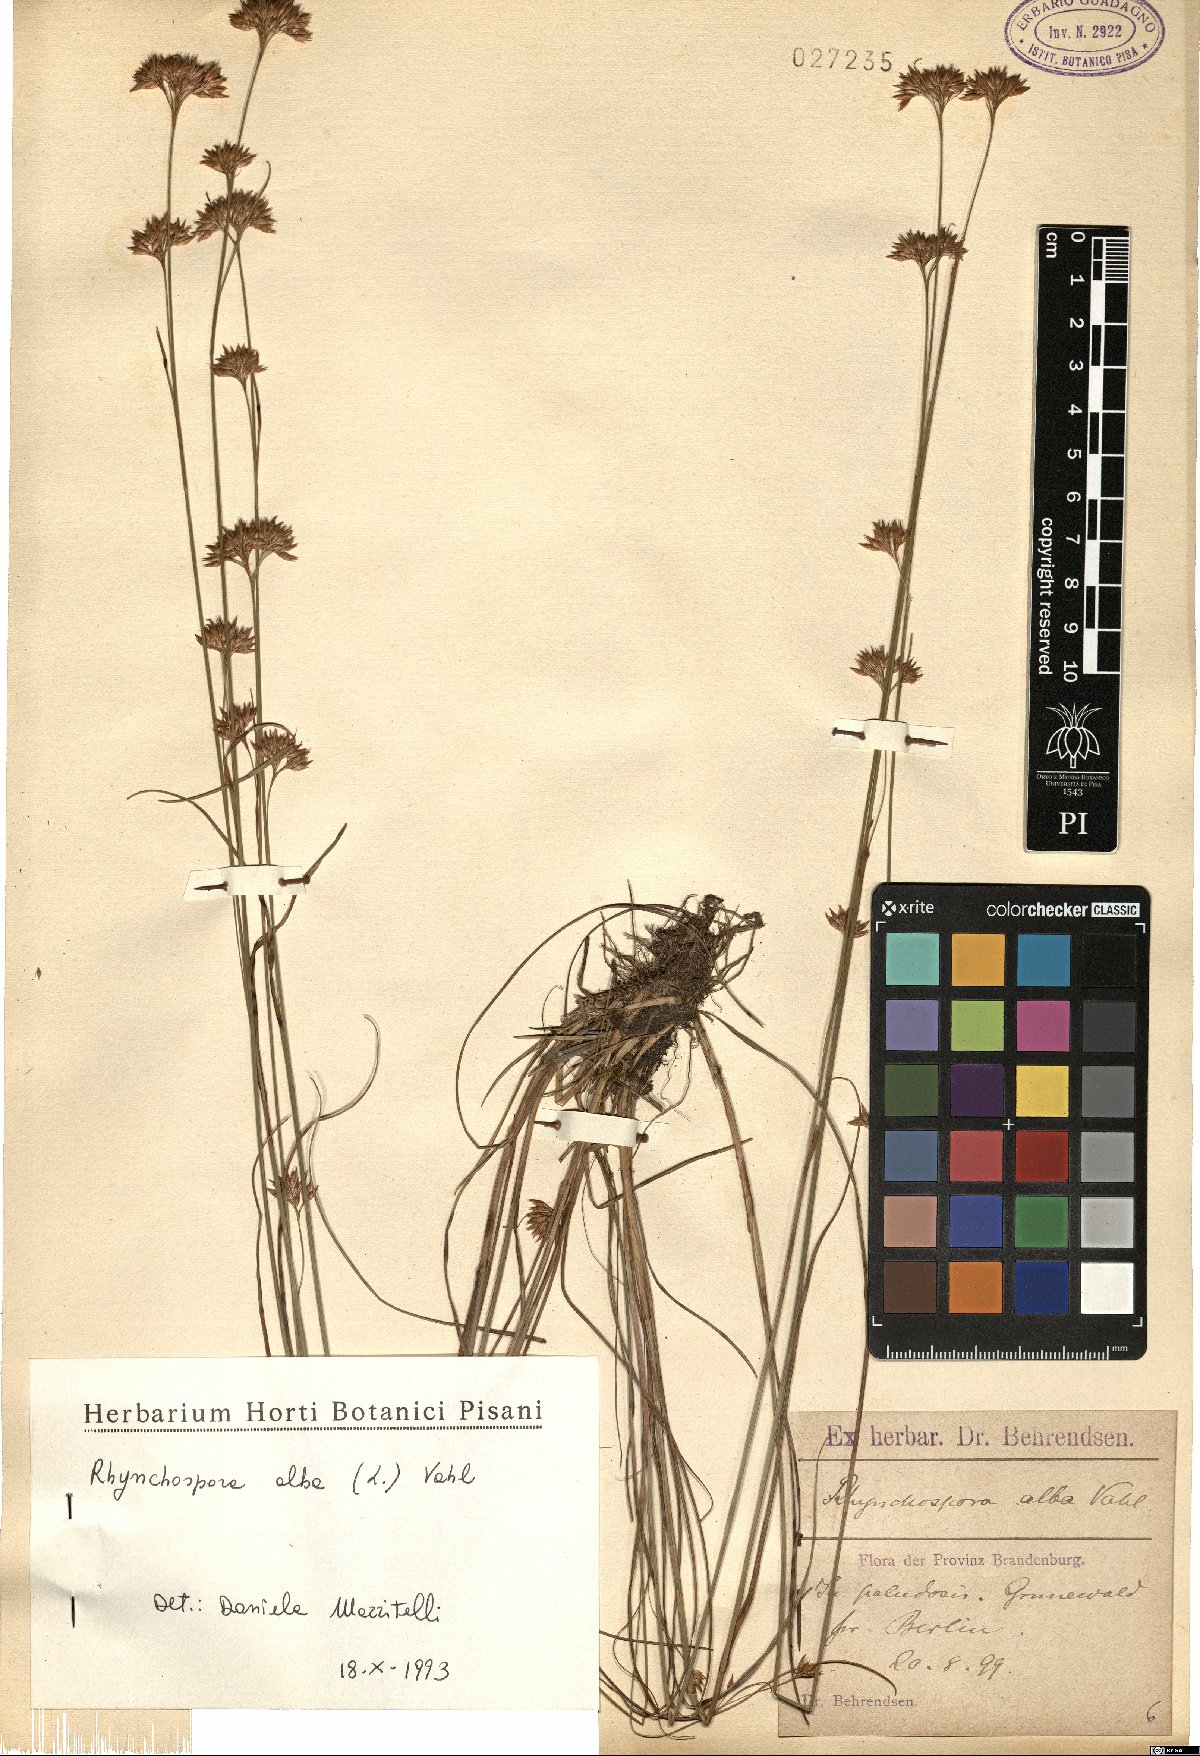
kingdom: Plantae
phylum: Tracheophyta
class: Liliopsida
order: Poales
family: Cyperaceae
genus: Rhynchospora
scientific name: Rhynchospora alba
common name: White beak-sedge
